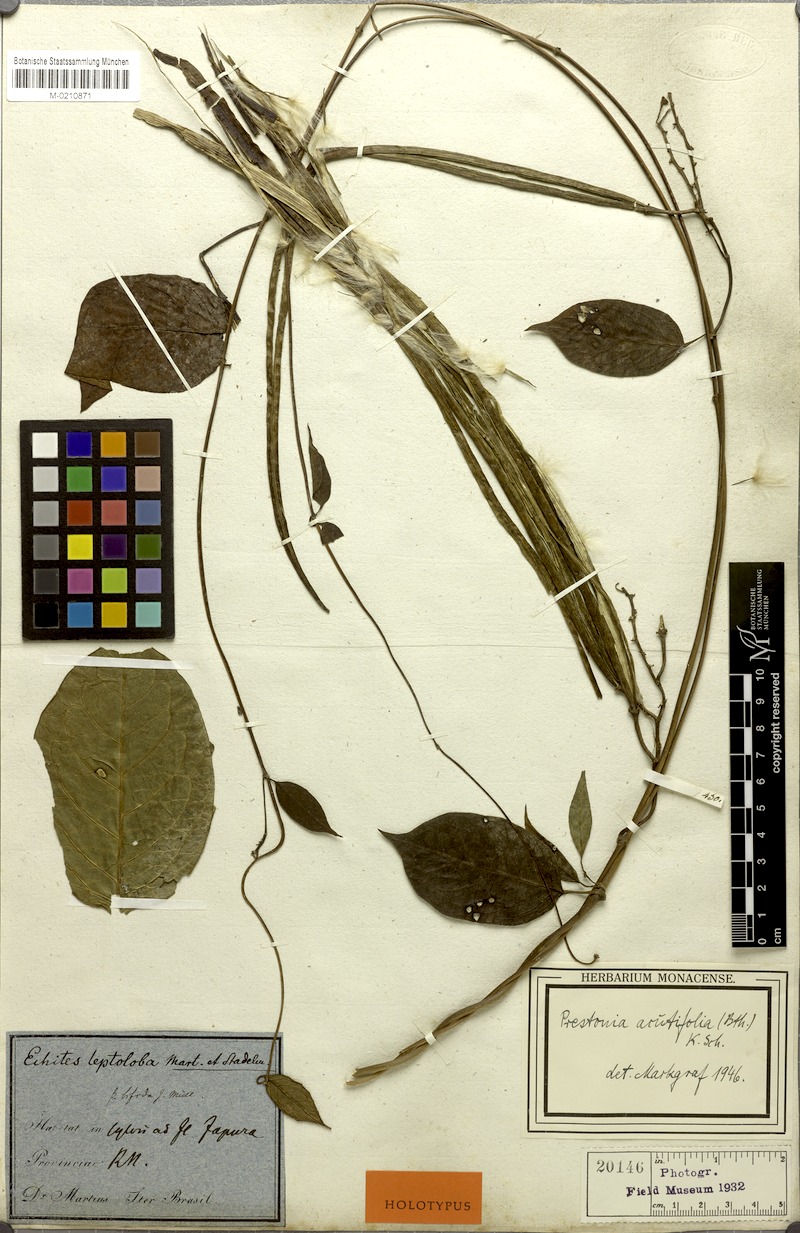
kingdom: Plantae
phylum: Tracheophyta
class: Magnoliopsida
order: Gentianales
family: Apocynaceae
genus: Prestonia
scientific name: Prestonia quinquangularis
